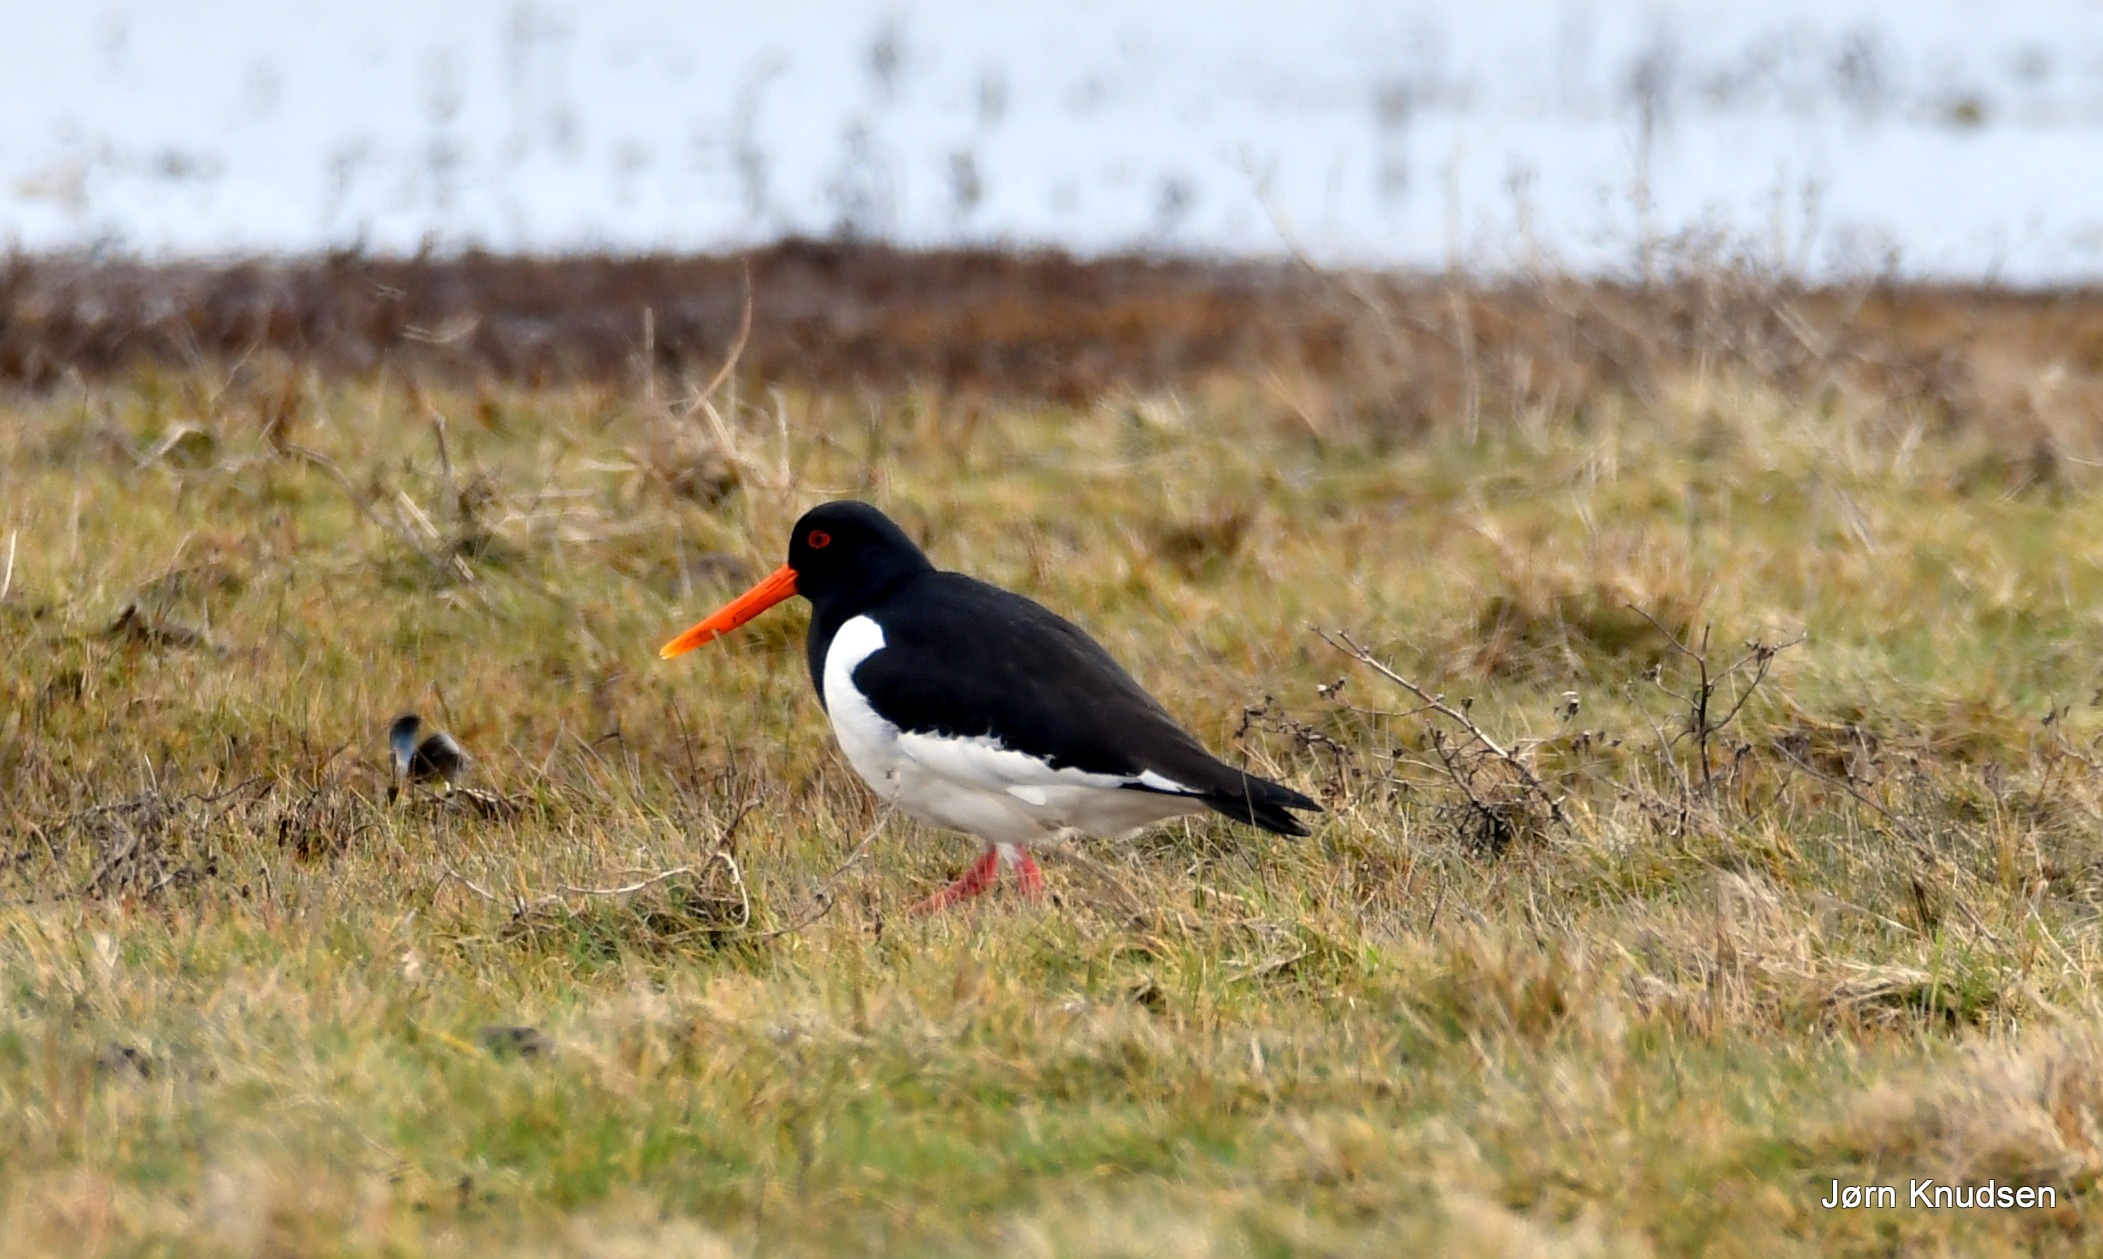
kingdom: Animalia
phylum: Chordata
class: Aves
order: Charadriiformes
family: Haematopodidae
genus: Haematopus
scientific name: Haematopus ostralegus
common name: Strandskade
